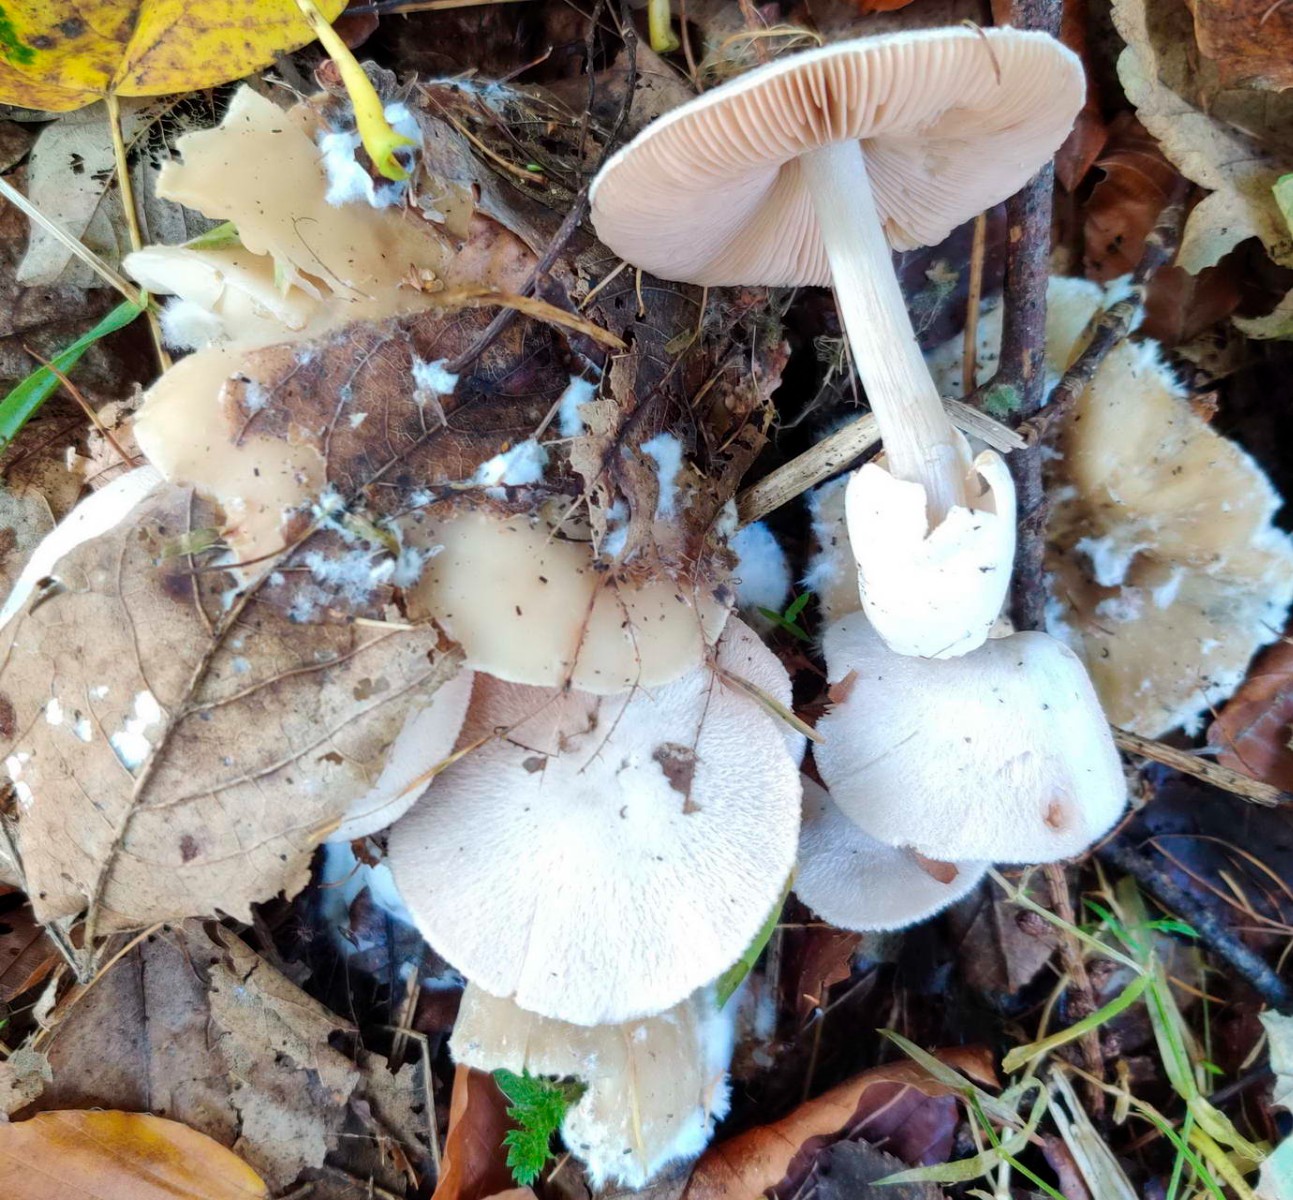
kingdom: Fungi
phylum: Basidiomycota
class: Agaricomycetes
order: Agaricales
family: Pluteaceae
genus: Volvariella
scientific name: Volvariella surrecta
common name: snyltende posesvamp
